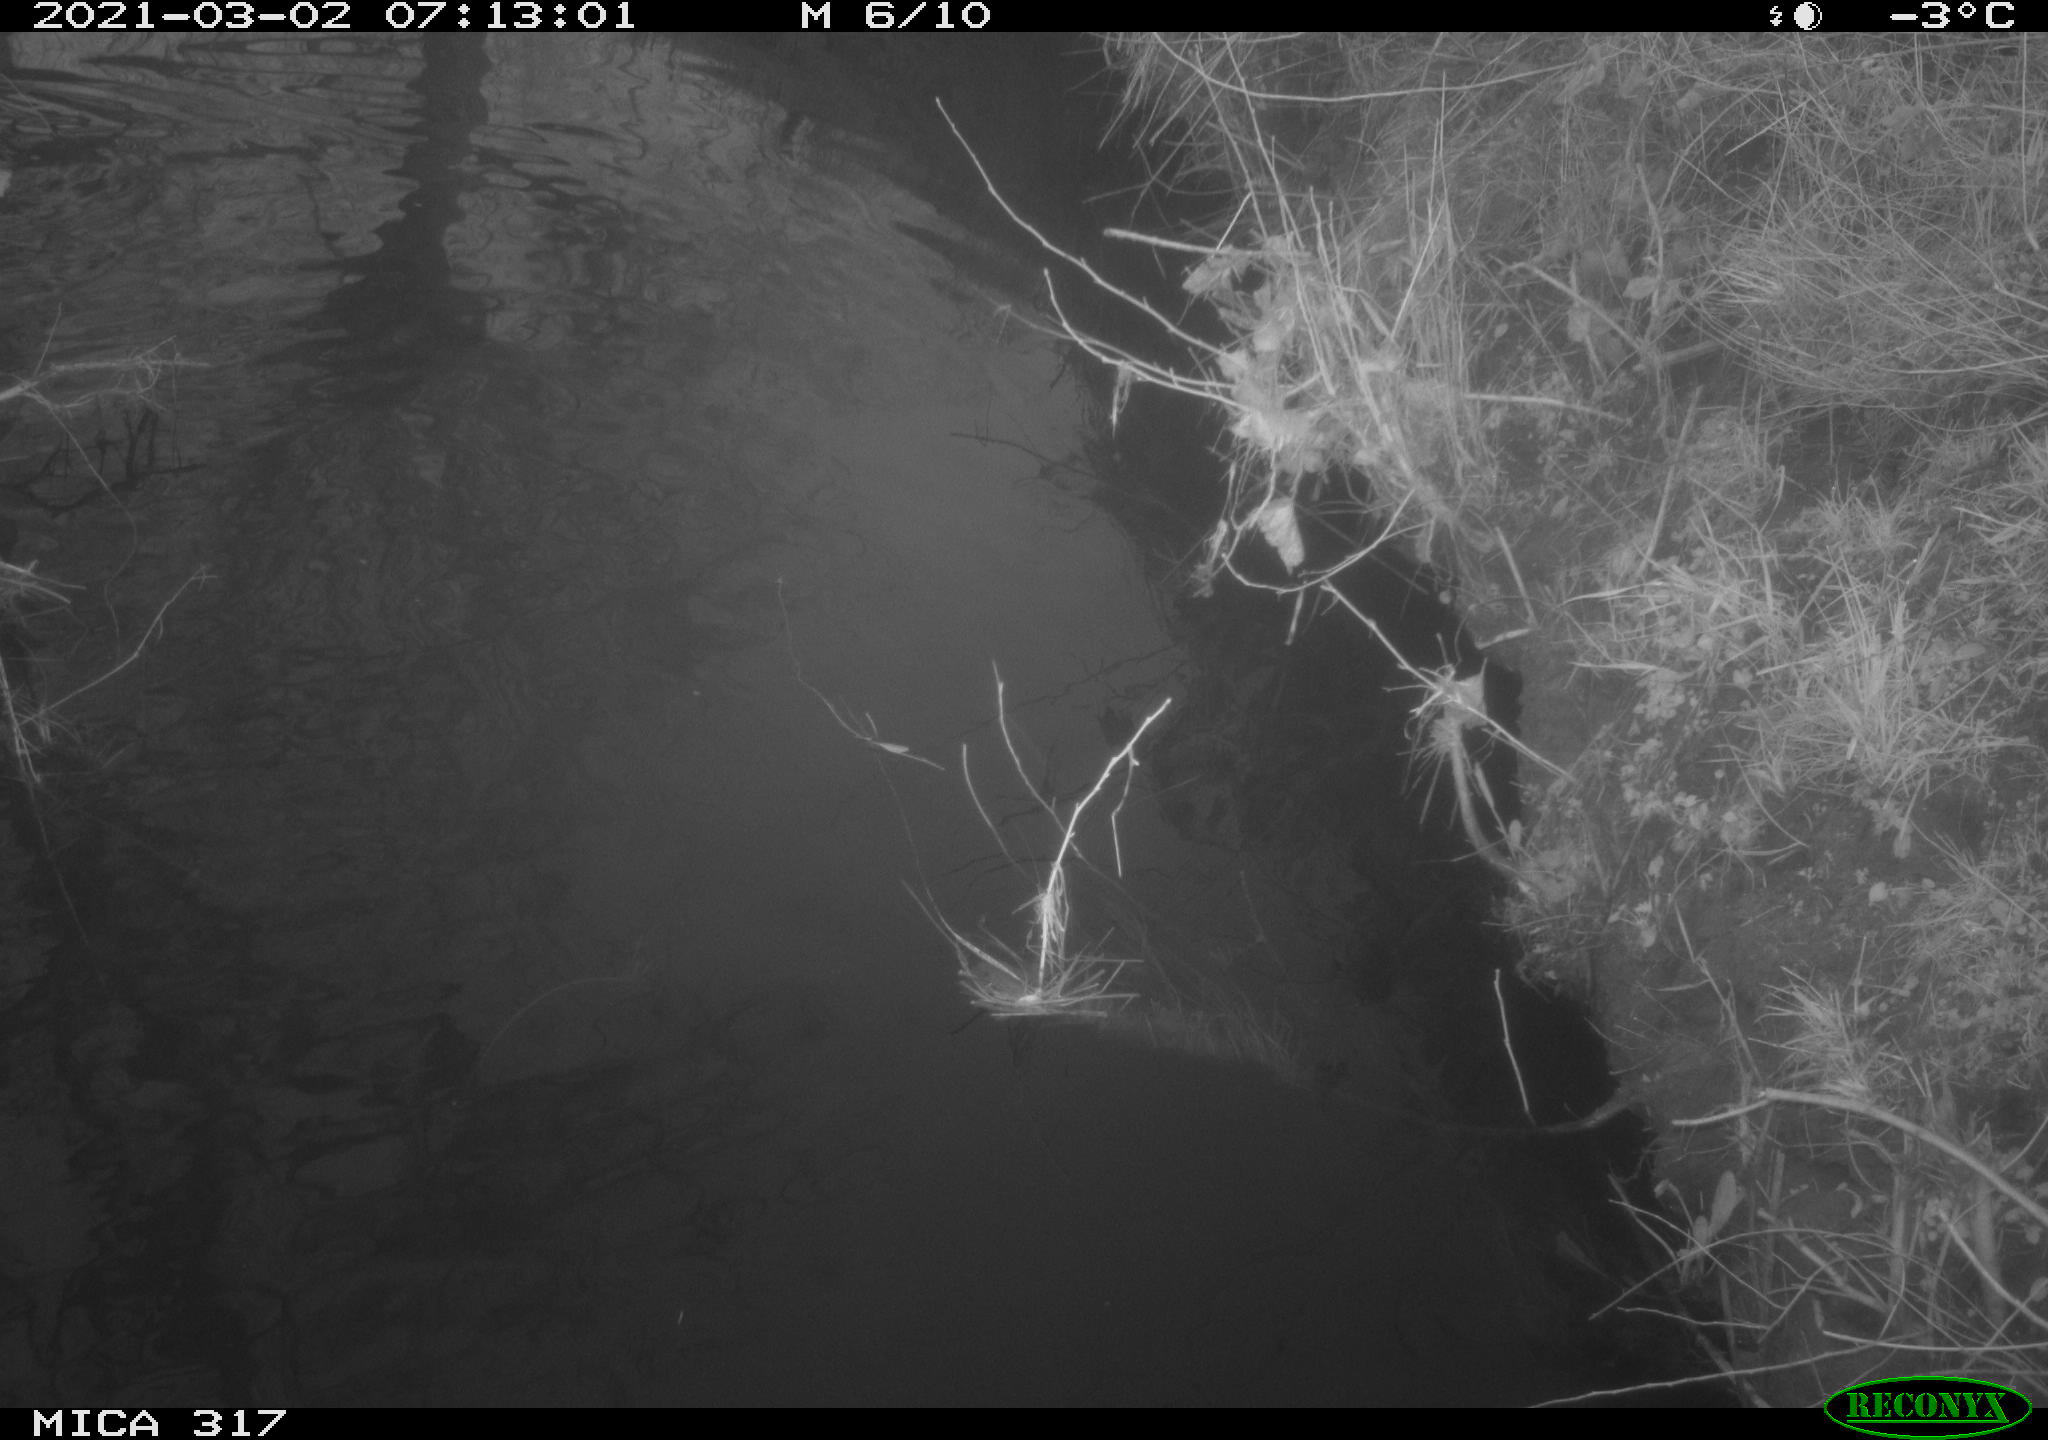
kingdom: Animalia
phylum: Chordata
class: Aves
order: Gruiformes
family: Rallidae
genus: Fulica
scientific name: Fulica atra
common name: Eurasian coot
